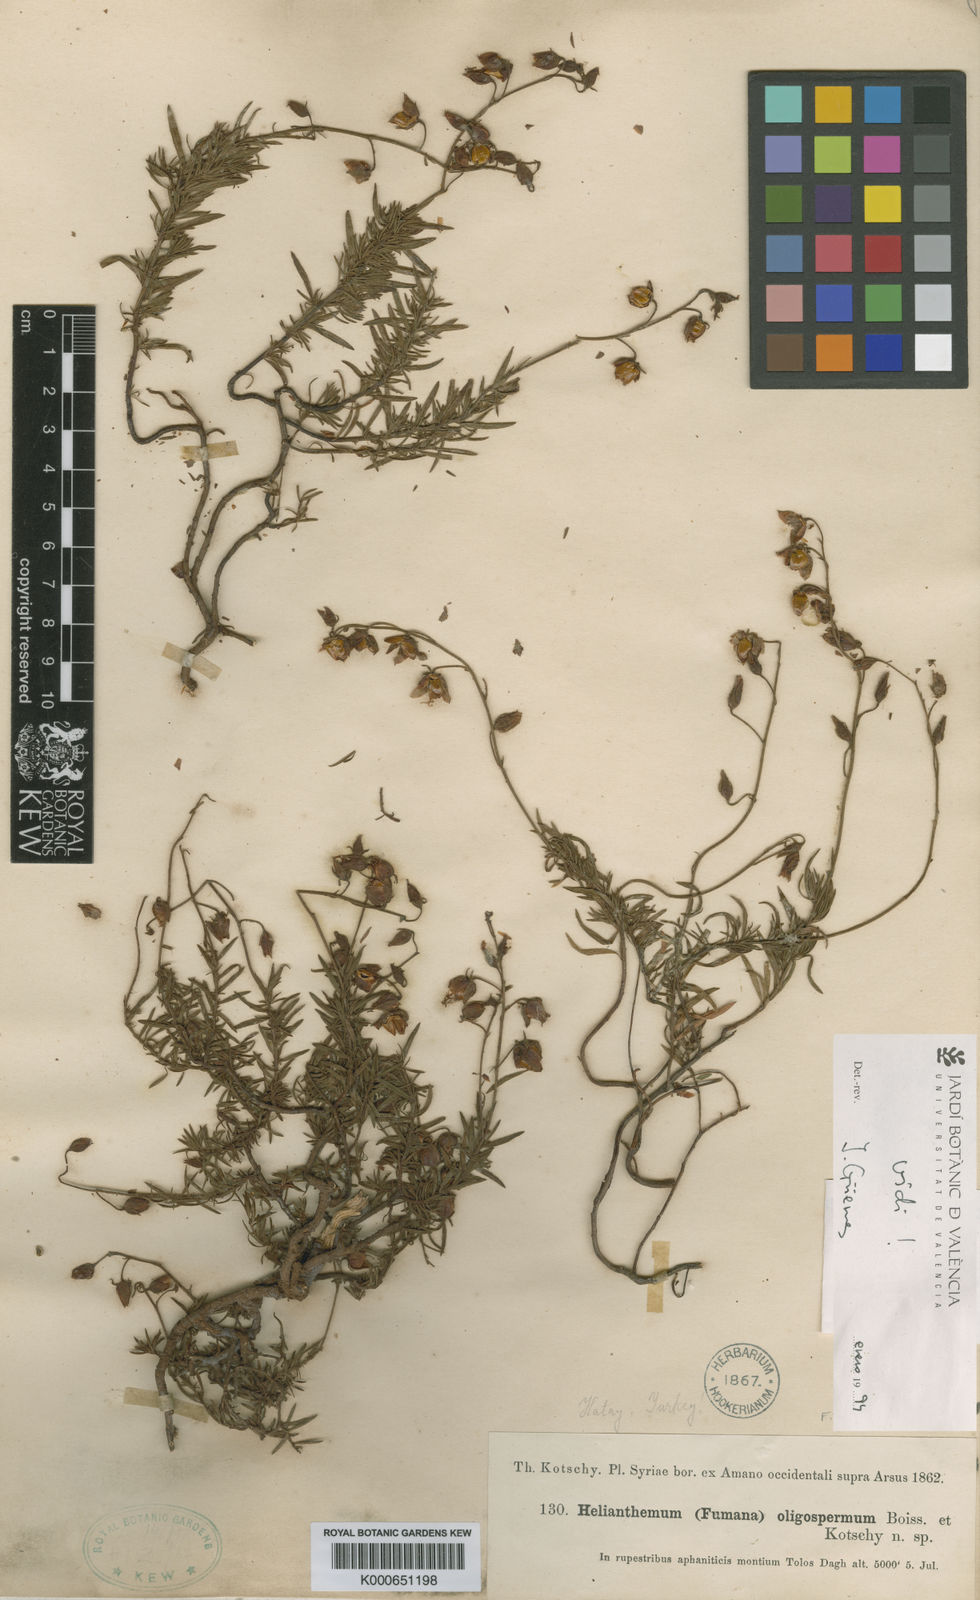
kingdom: Plantae
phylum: Tracheophyta
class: Magnoliopsida
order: Malvales
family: Cistaceae
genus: Fumana
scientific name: Fumana oligosperma
